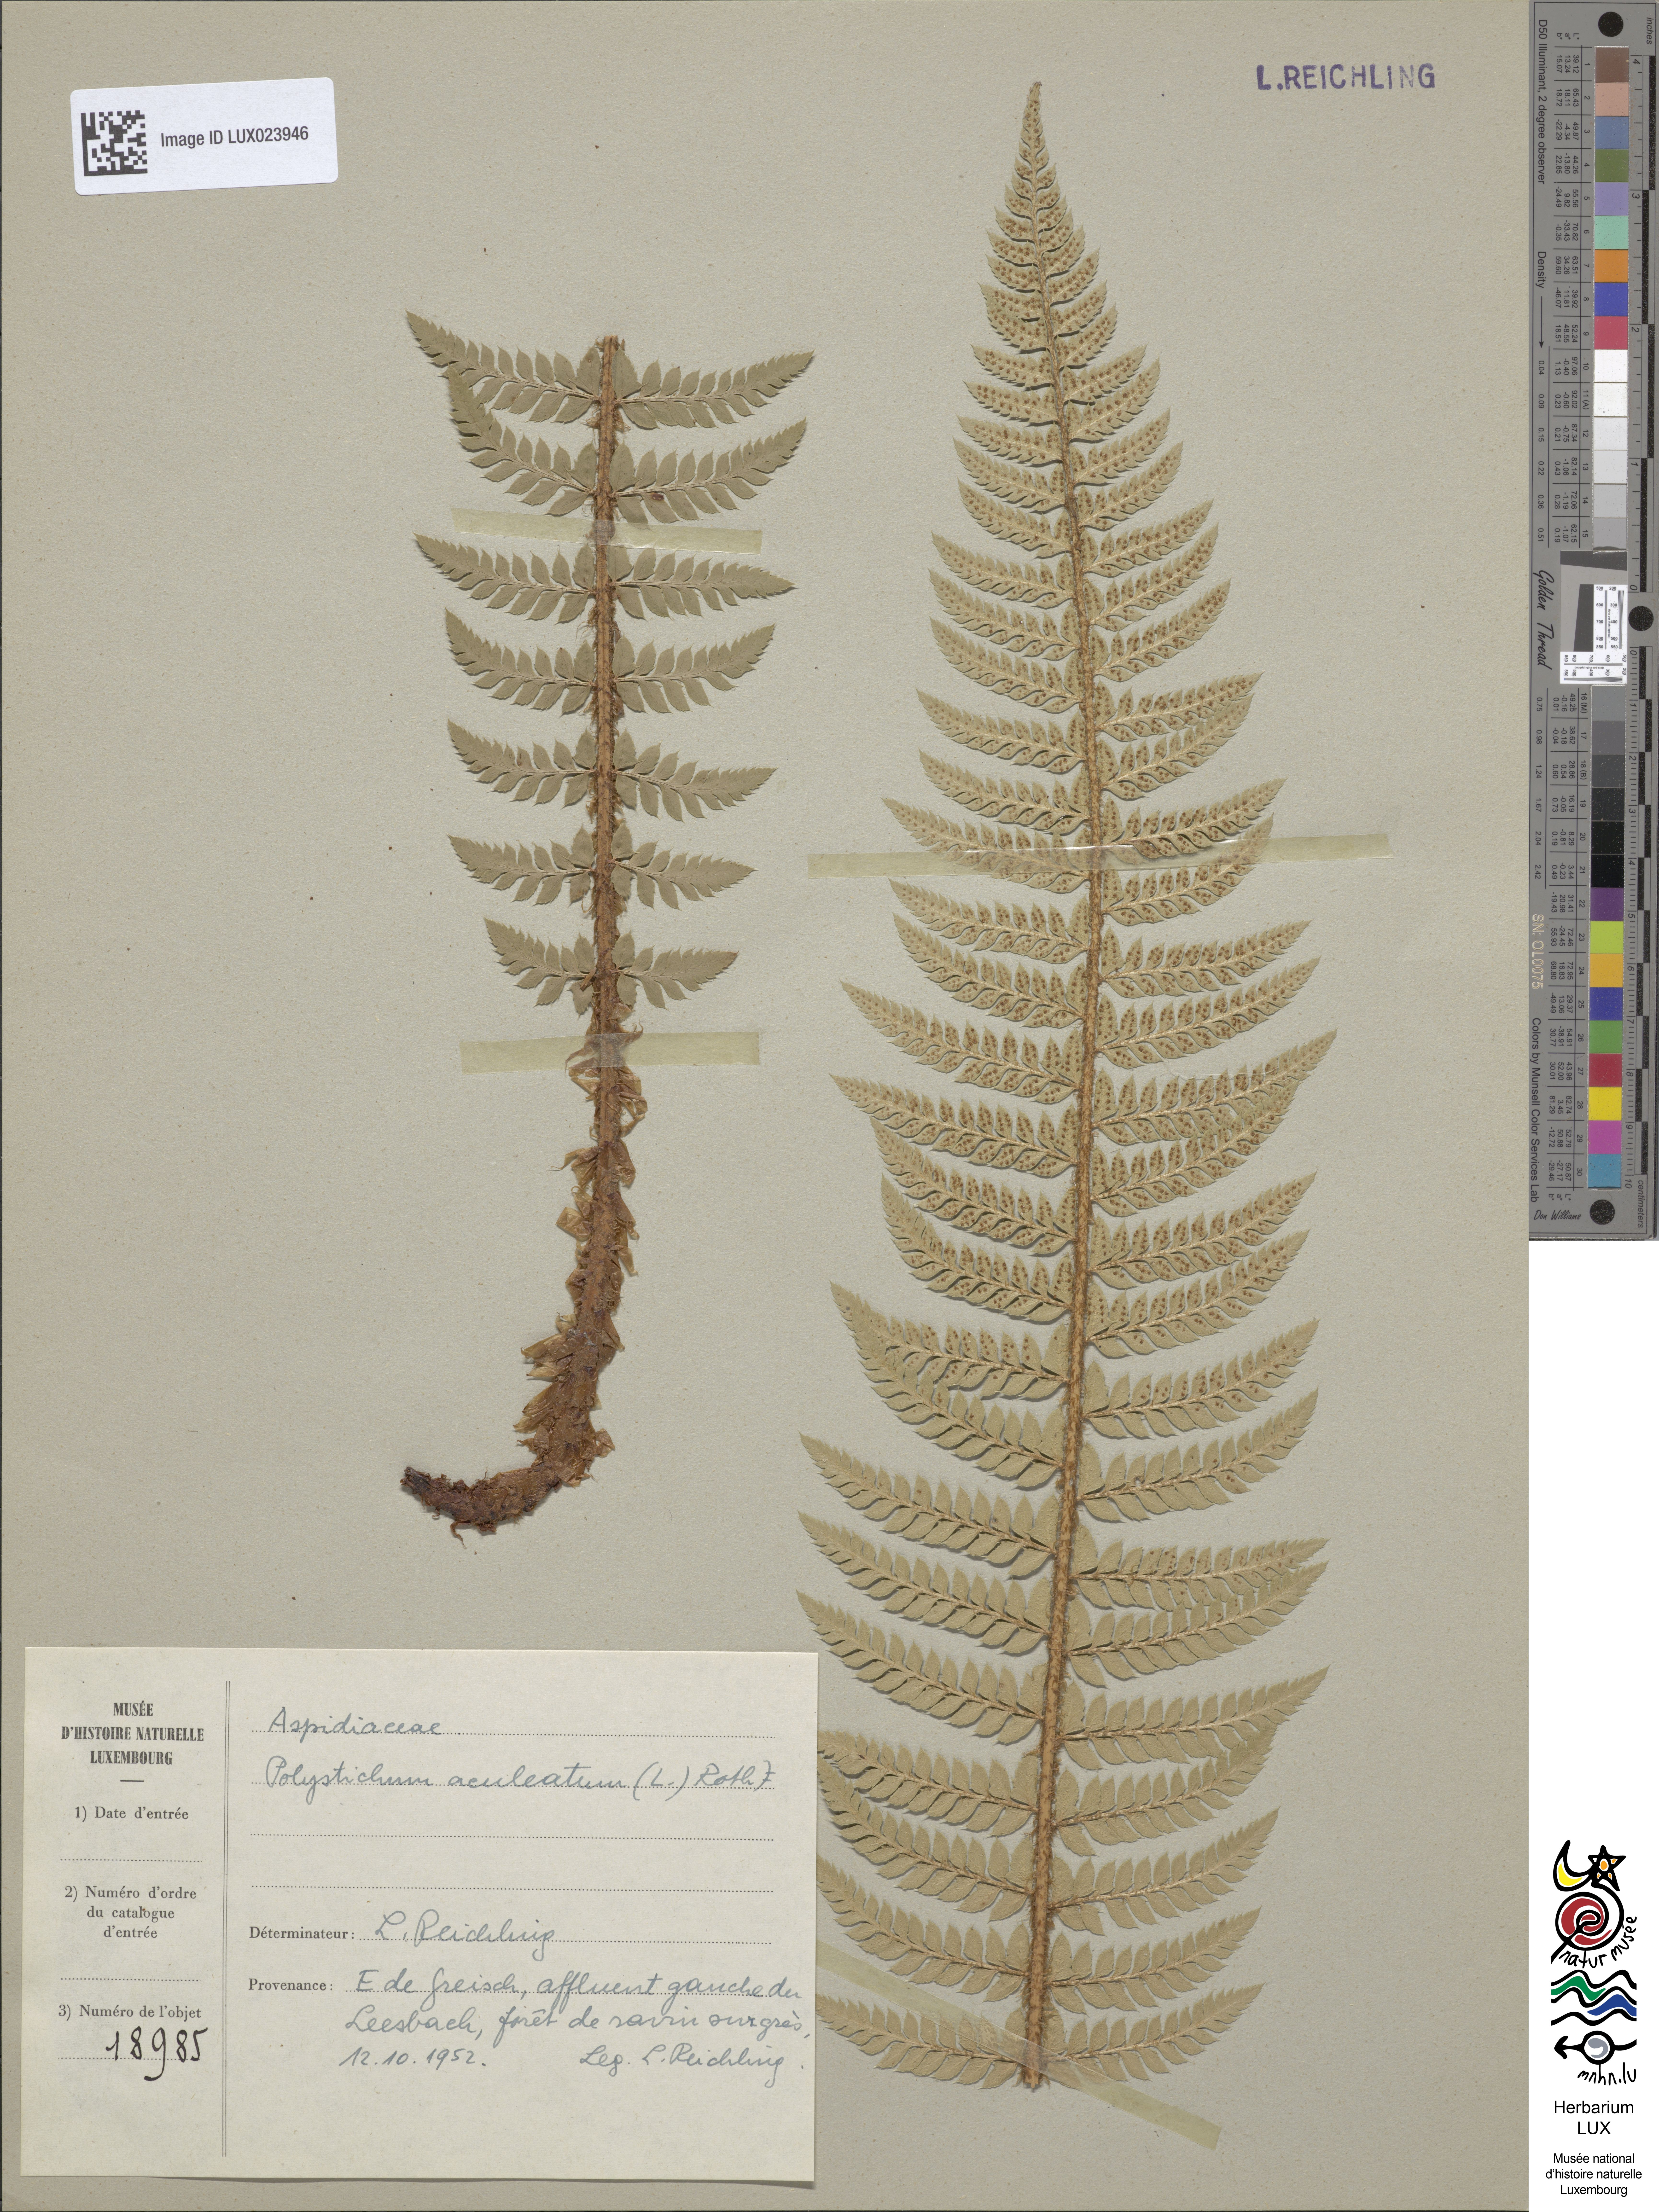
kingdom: Plantae
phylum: Tracheophyta
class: Polypodiopsida
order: Polypodiales
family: Dryopteridaceae
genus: Polystichum
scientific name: Polystichum aculeatum
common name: Hard shield-fern
